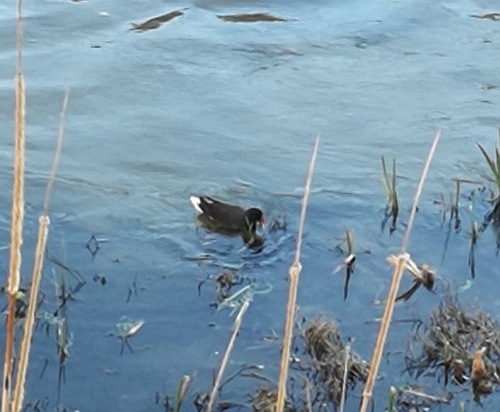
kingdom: Animalia
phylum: Chordata
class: Aves
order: Gruiformes
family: Rallidae
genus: Gallinula
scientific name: Gallinula chloropus
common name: Common moorhen
